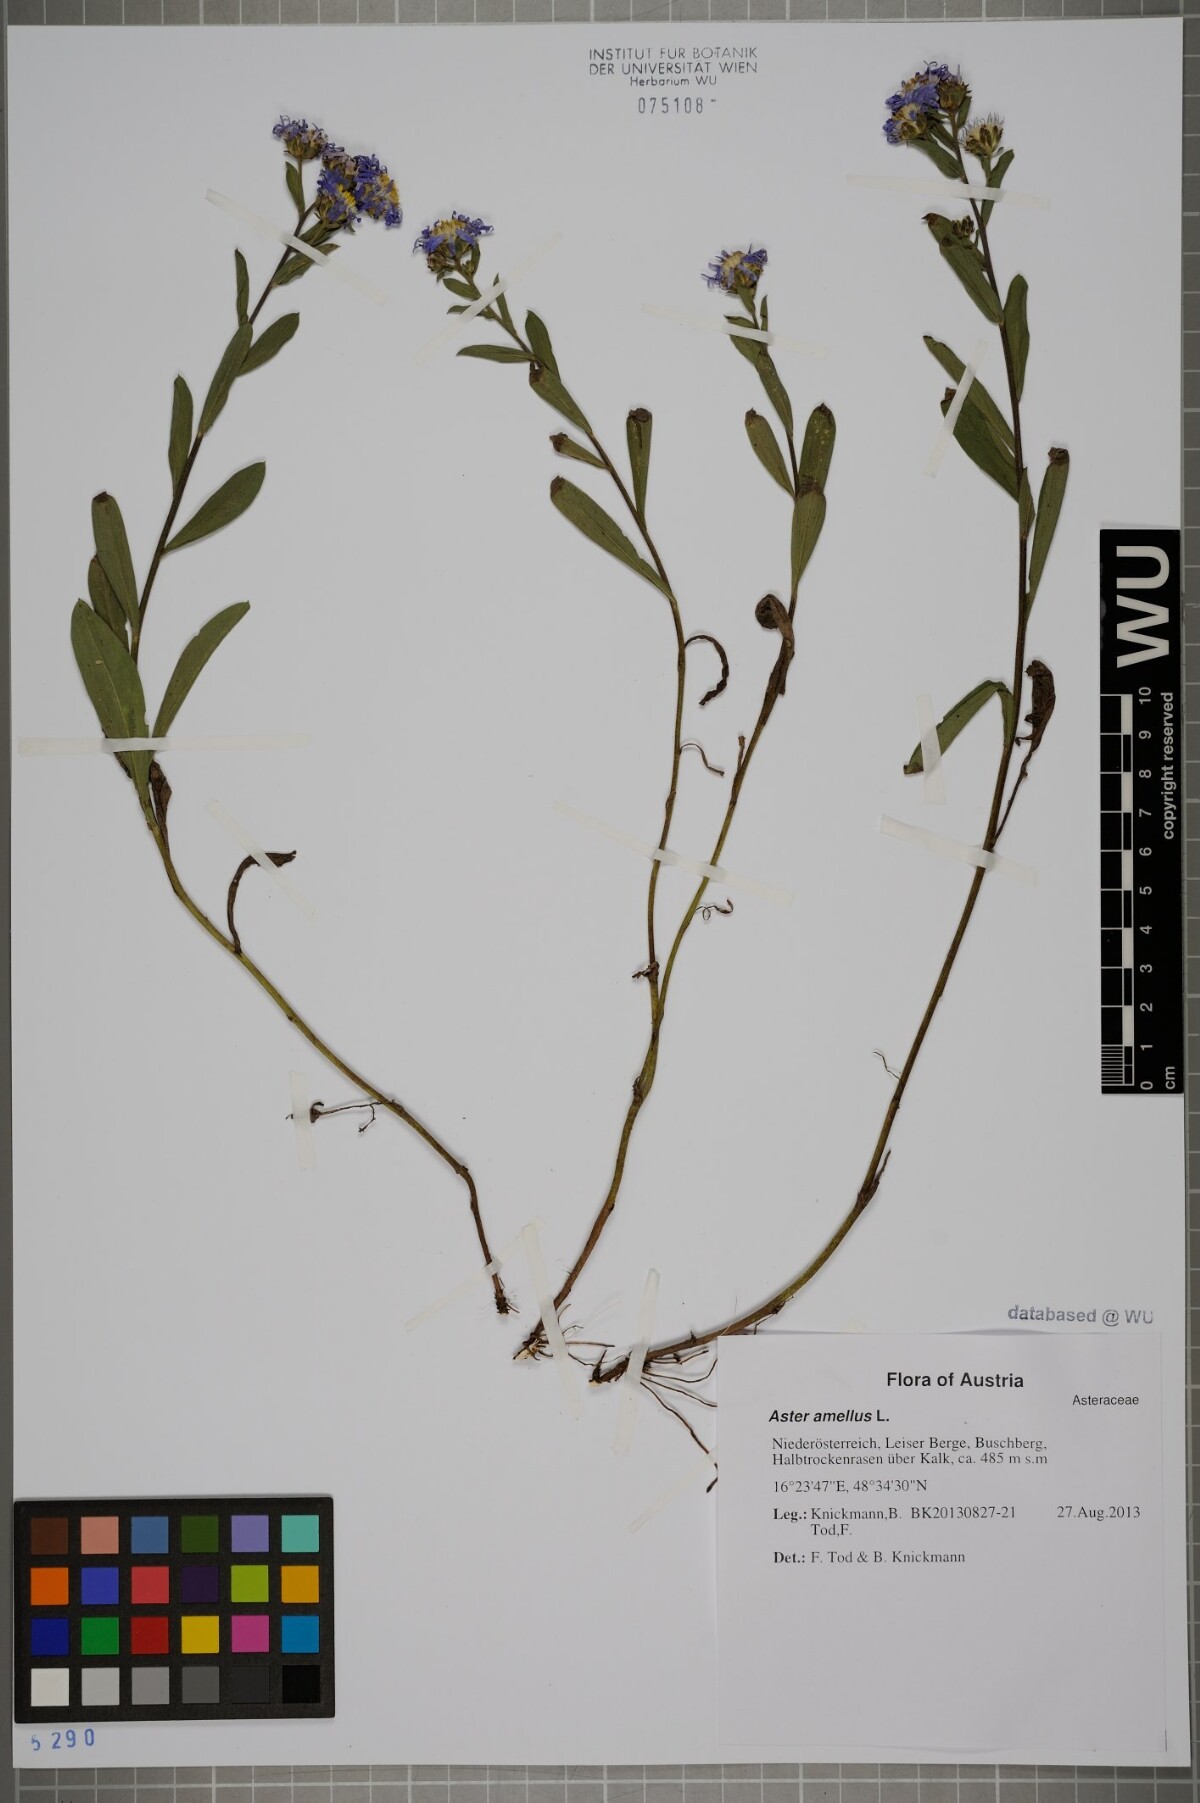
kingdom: Plantae
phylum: Tracheophyta
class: Magnoliopsida
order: Asterales
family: Asteraceae
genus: Aster
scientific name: Aster amellus
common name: European michaelmas daisy
